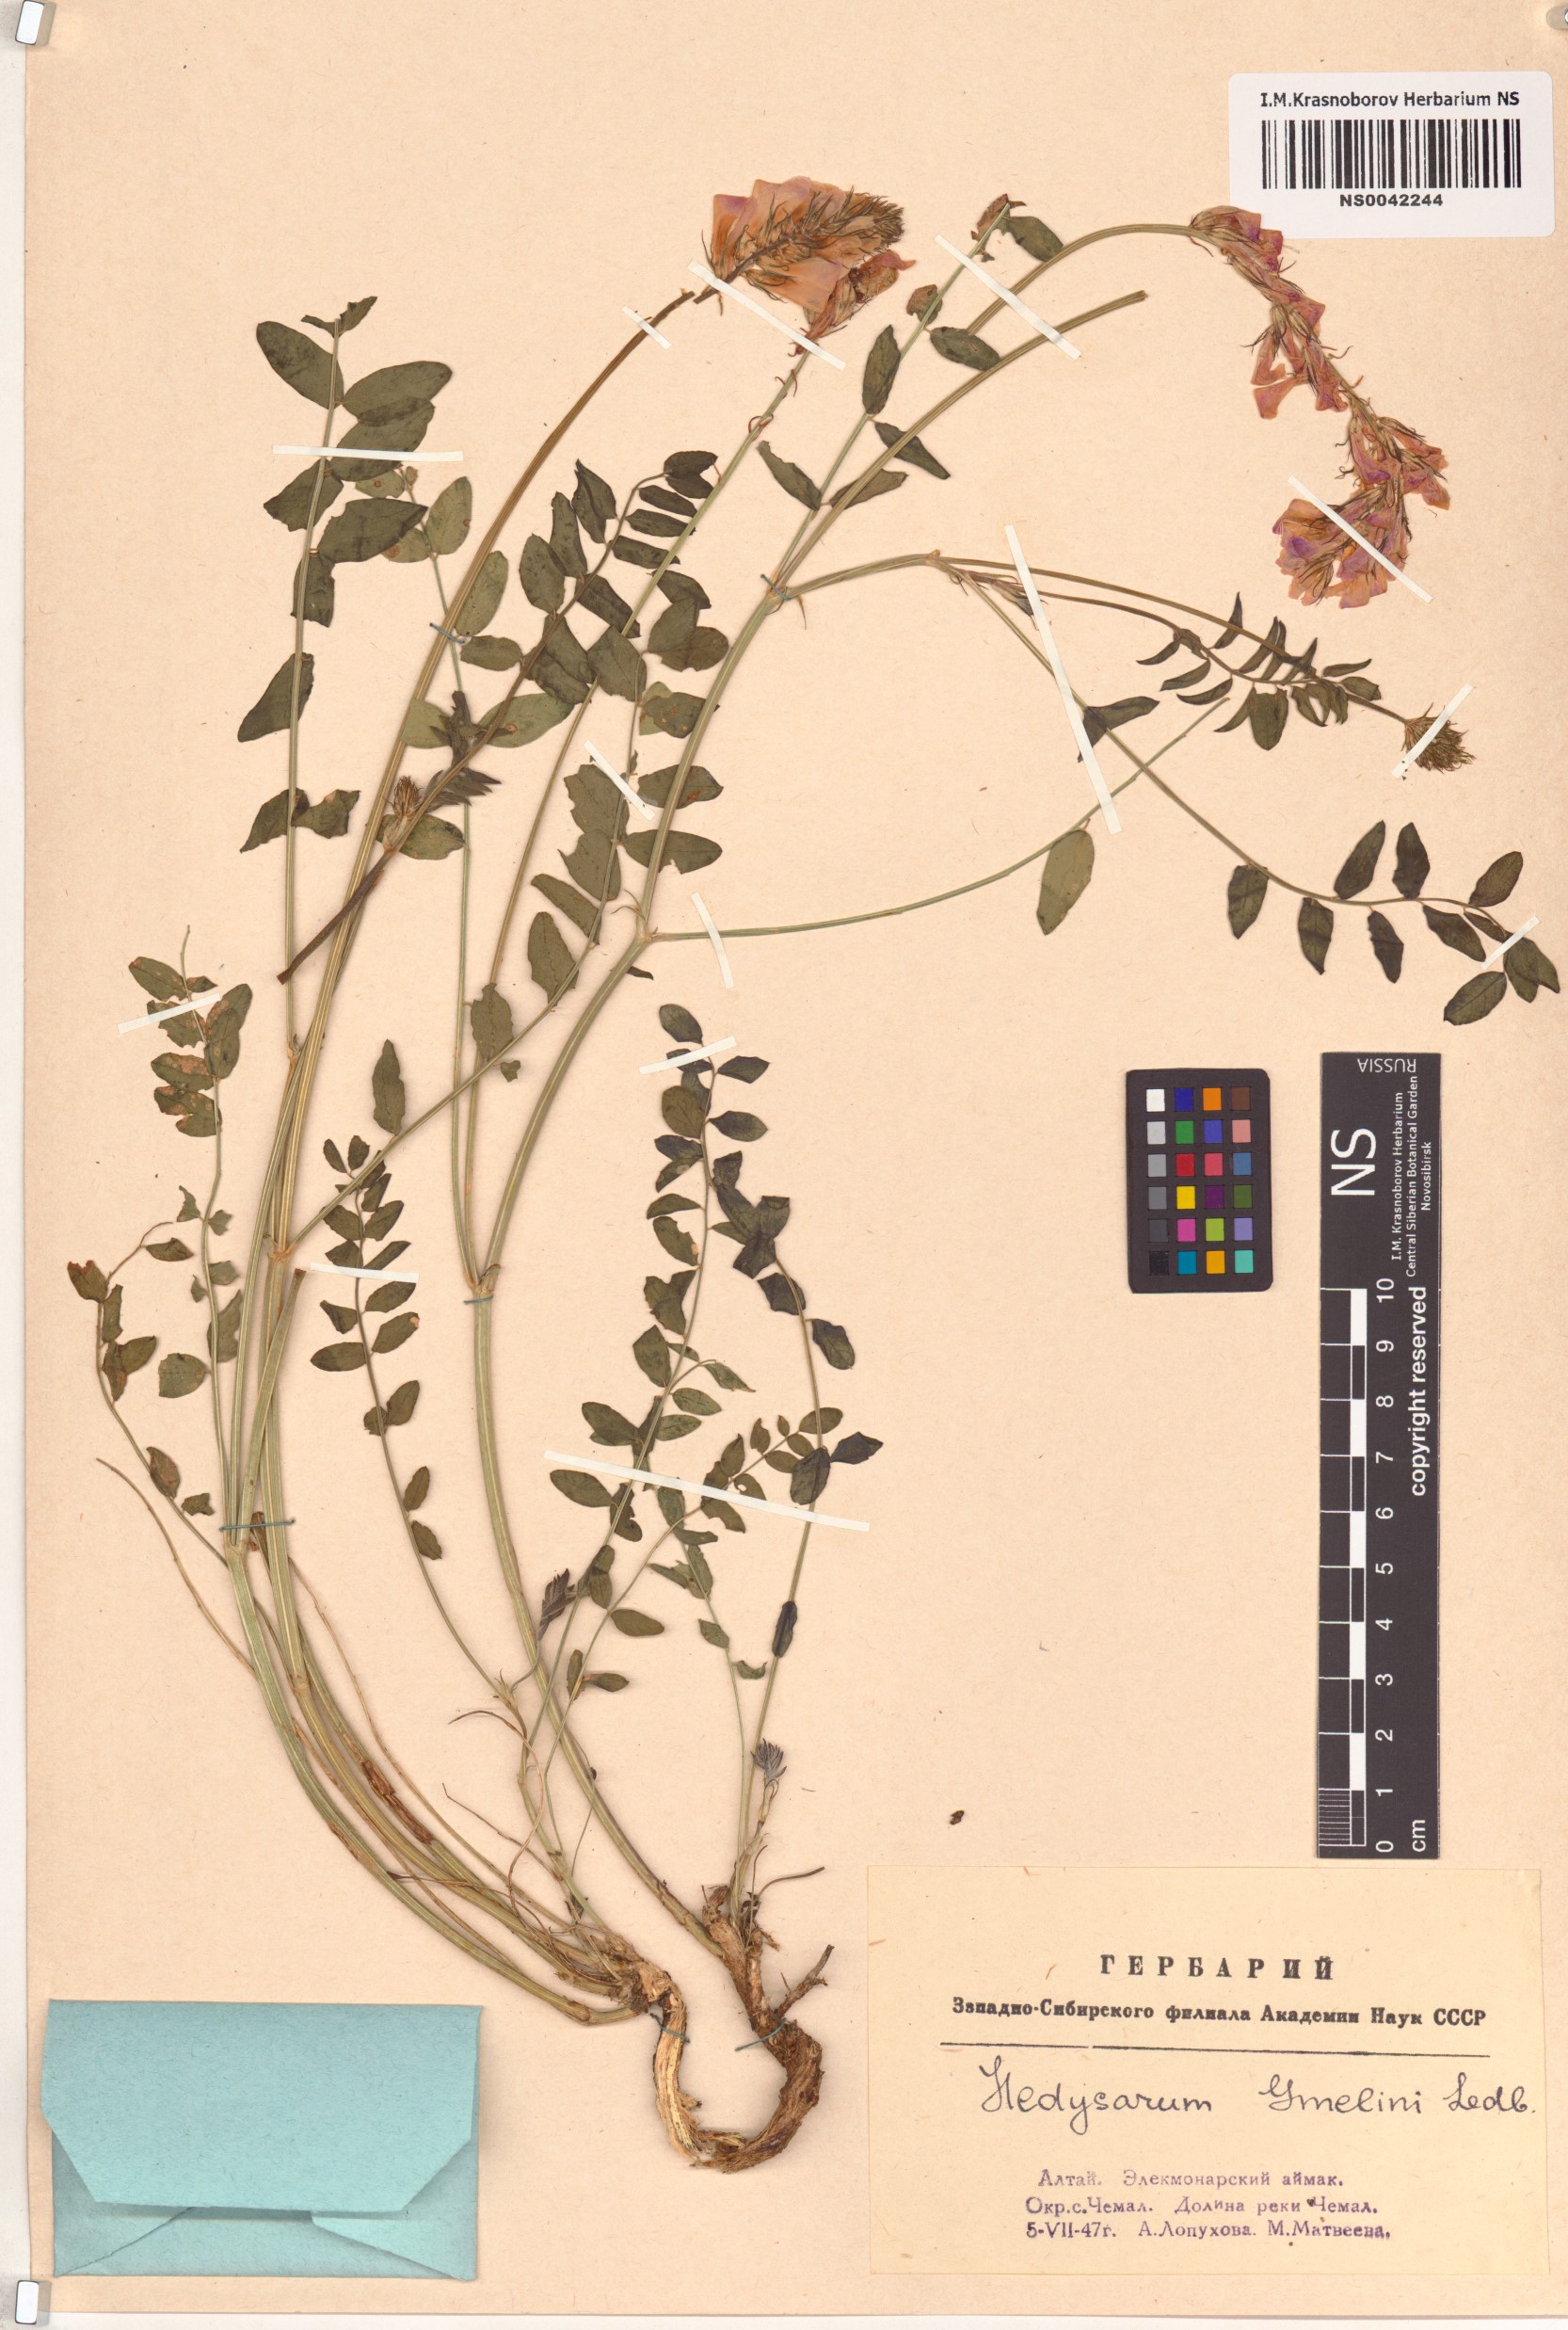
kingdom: Plantae
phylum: Tracheophyta
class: Magnoliopsida
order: Fabales
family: Fabaceae
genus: Hedysarum
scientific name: Hedysarum gmelinii
